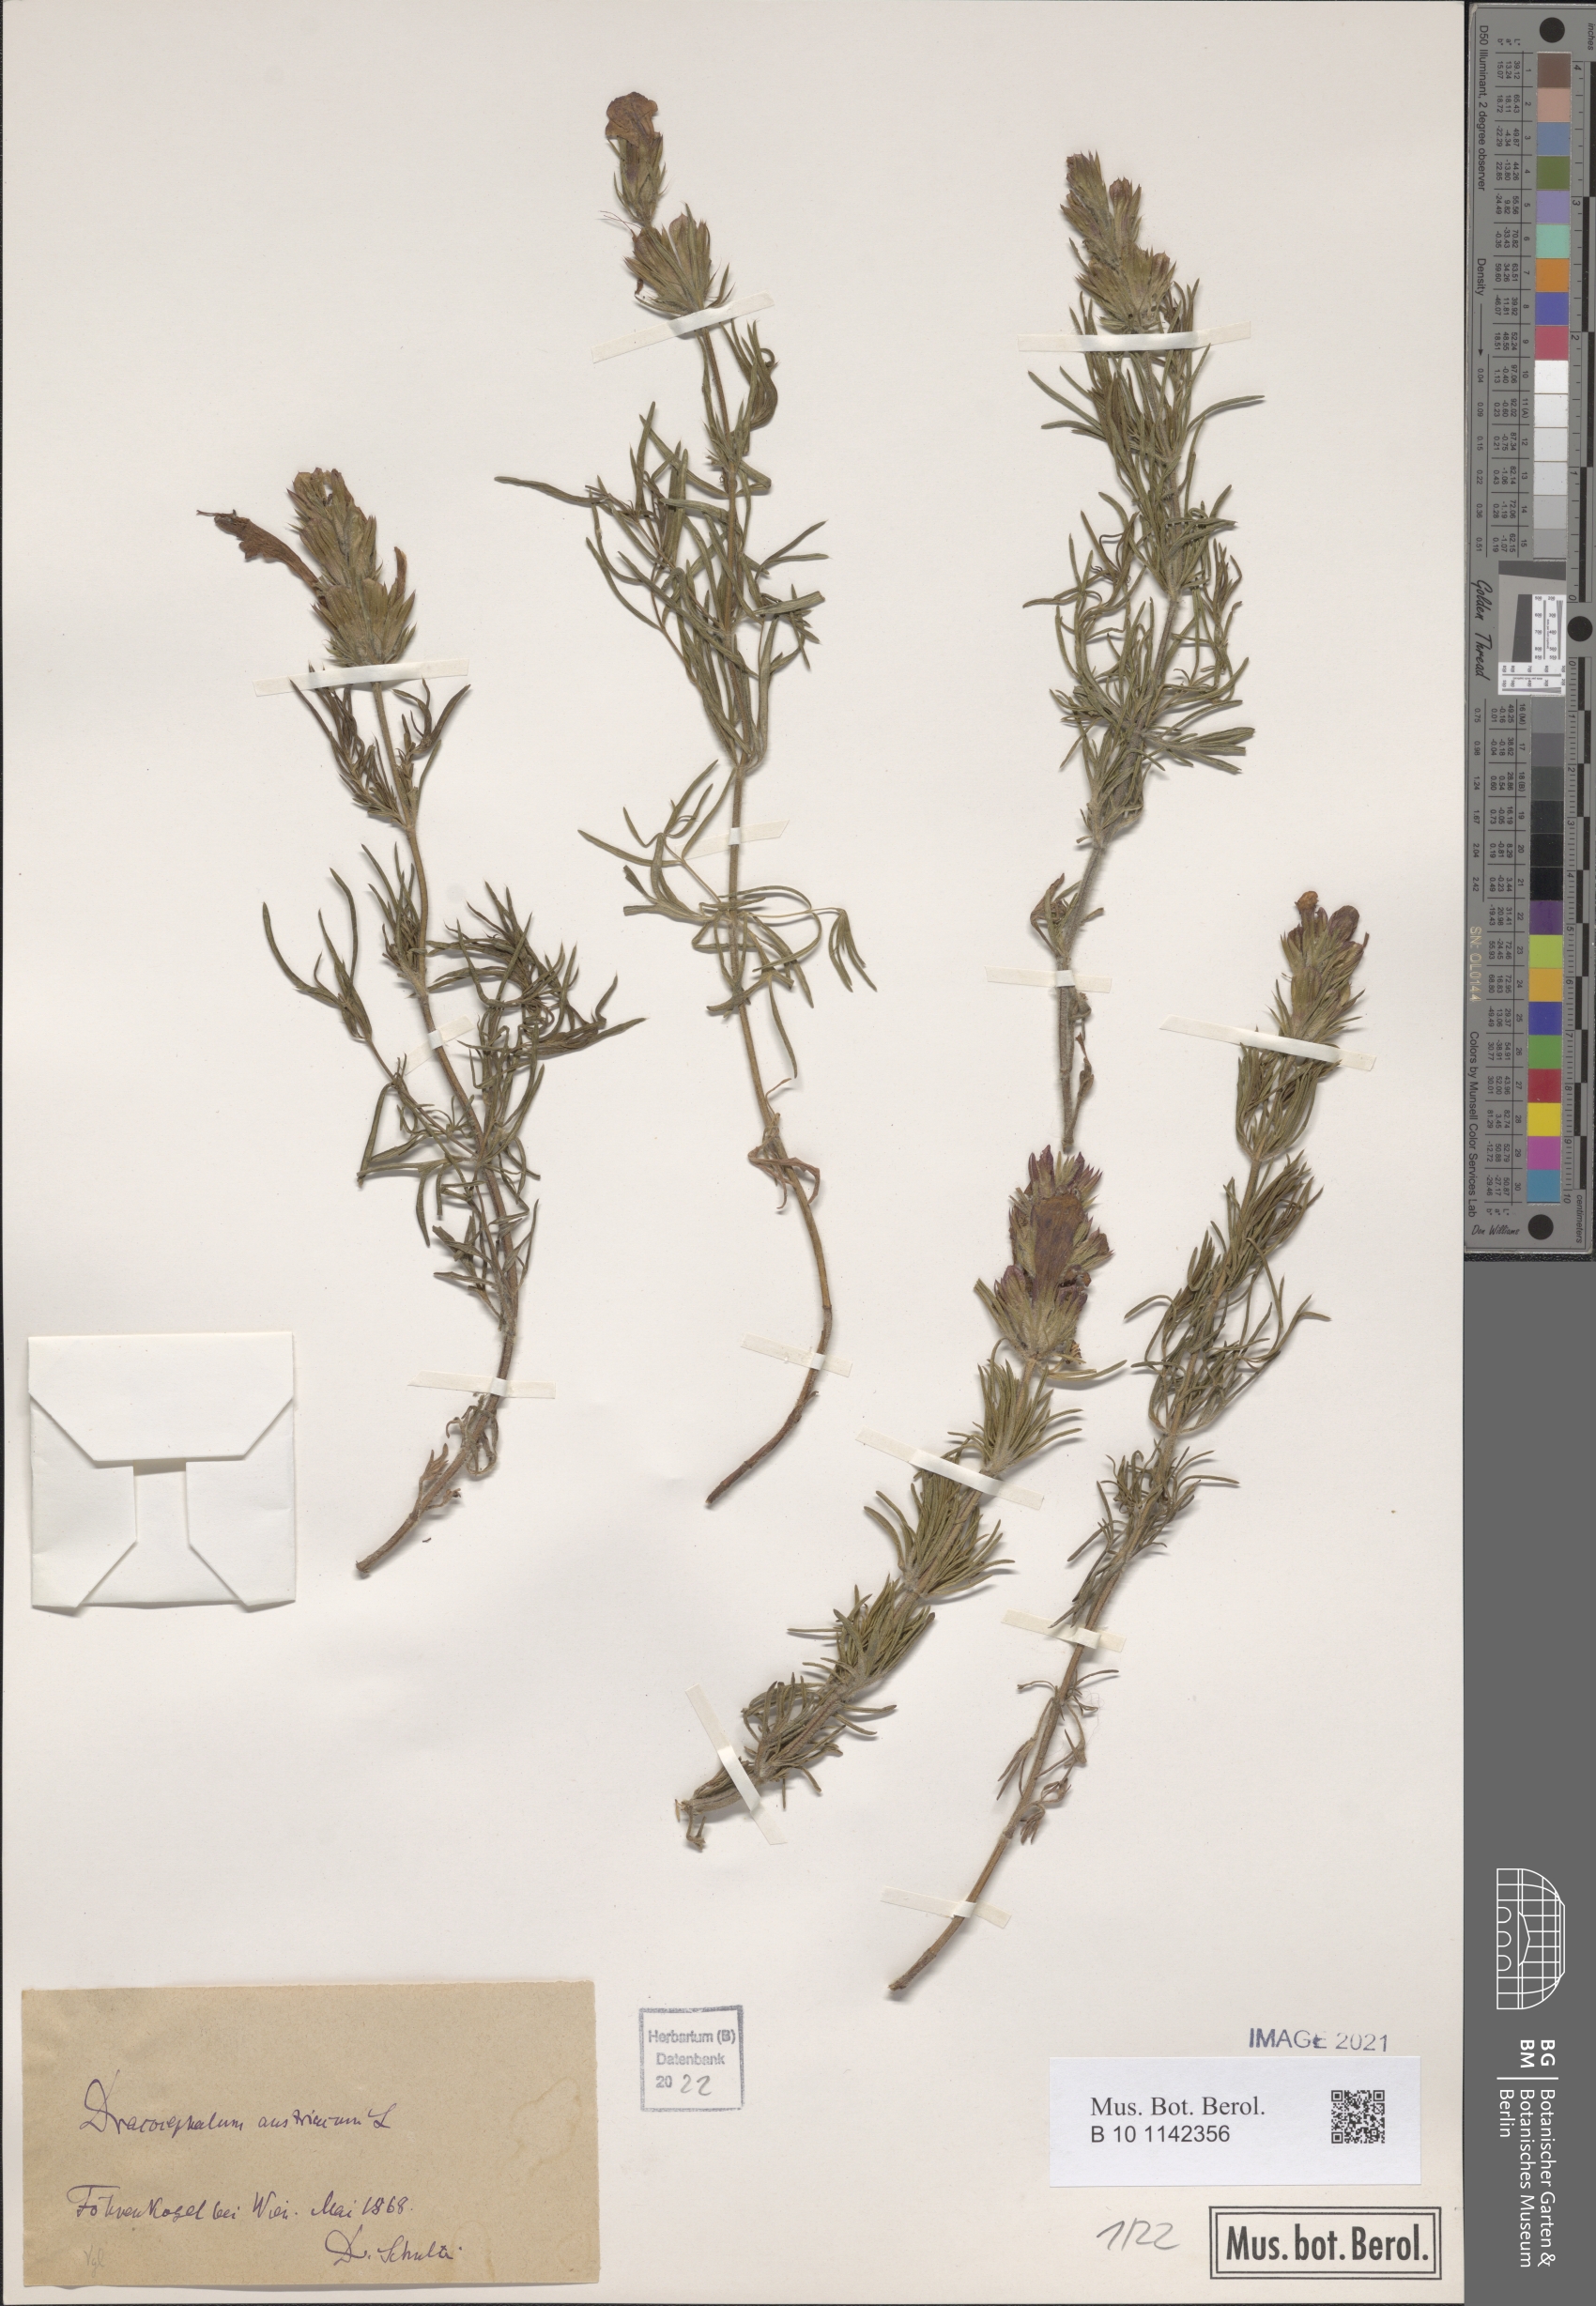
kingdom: Plantae
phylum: Tracheophyta
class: Magnoliopsida
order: Lamiales
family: Lamiaceae
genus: Dracocephalum
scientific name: Dracocephalum austriacum
